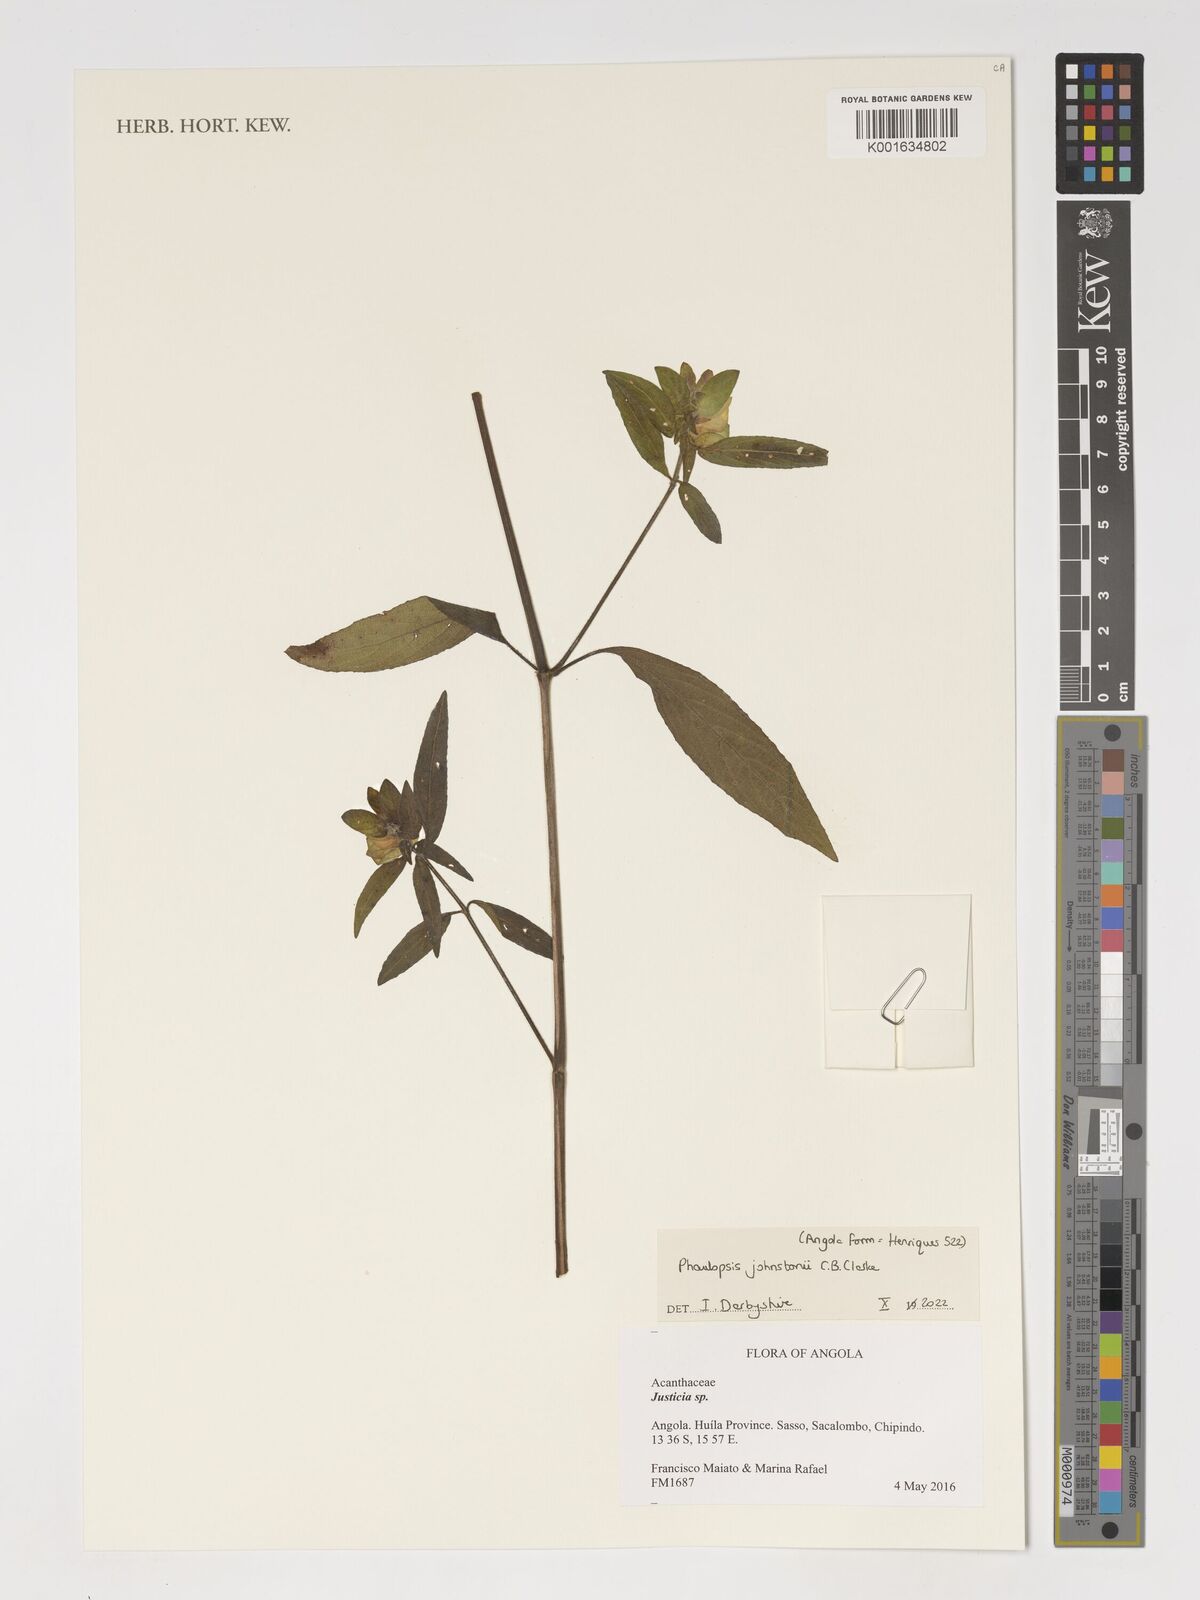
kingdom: Plantae
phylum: Tracheophyta
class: Magnoliopsida
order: Lamiales
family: Acanthaceae
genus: Phaulopsis
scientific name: Phaulopsis johnstonii
